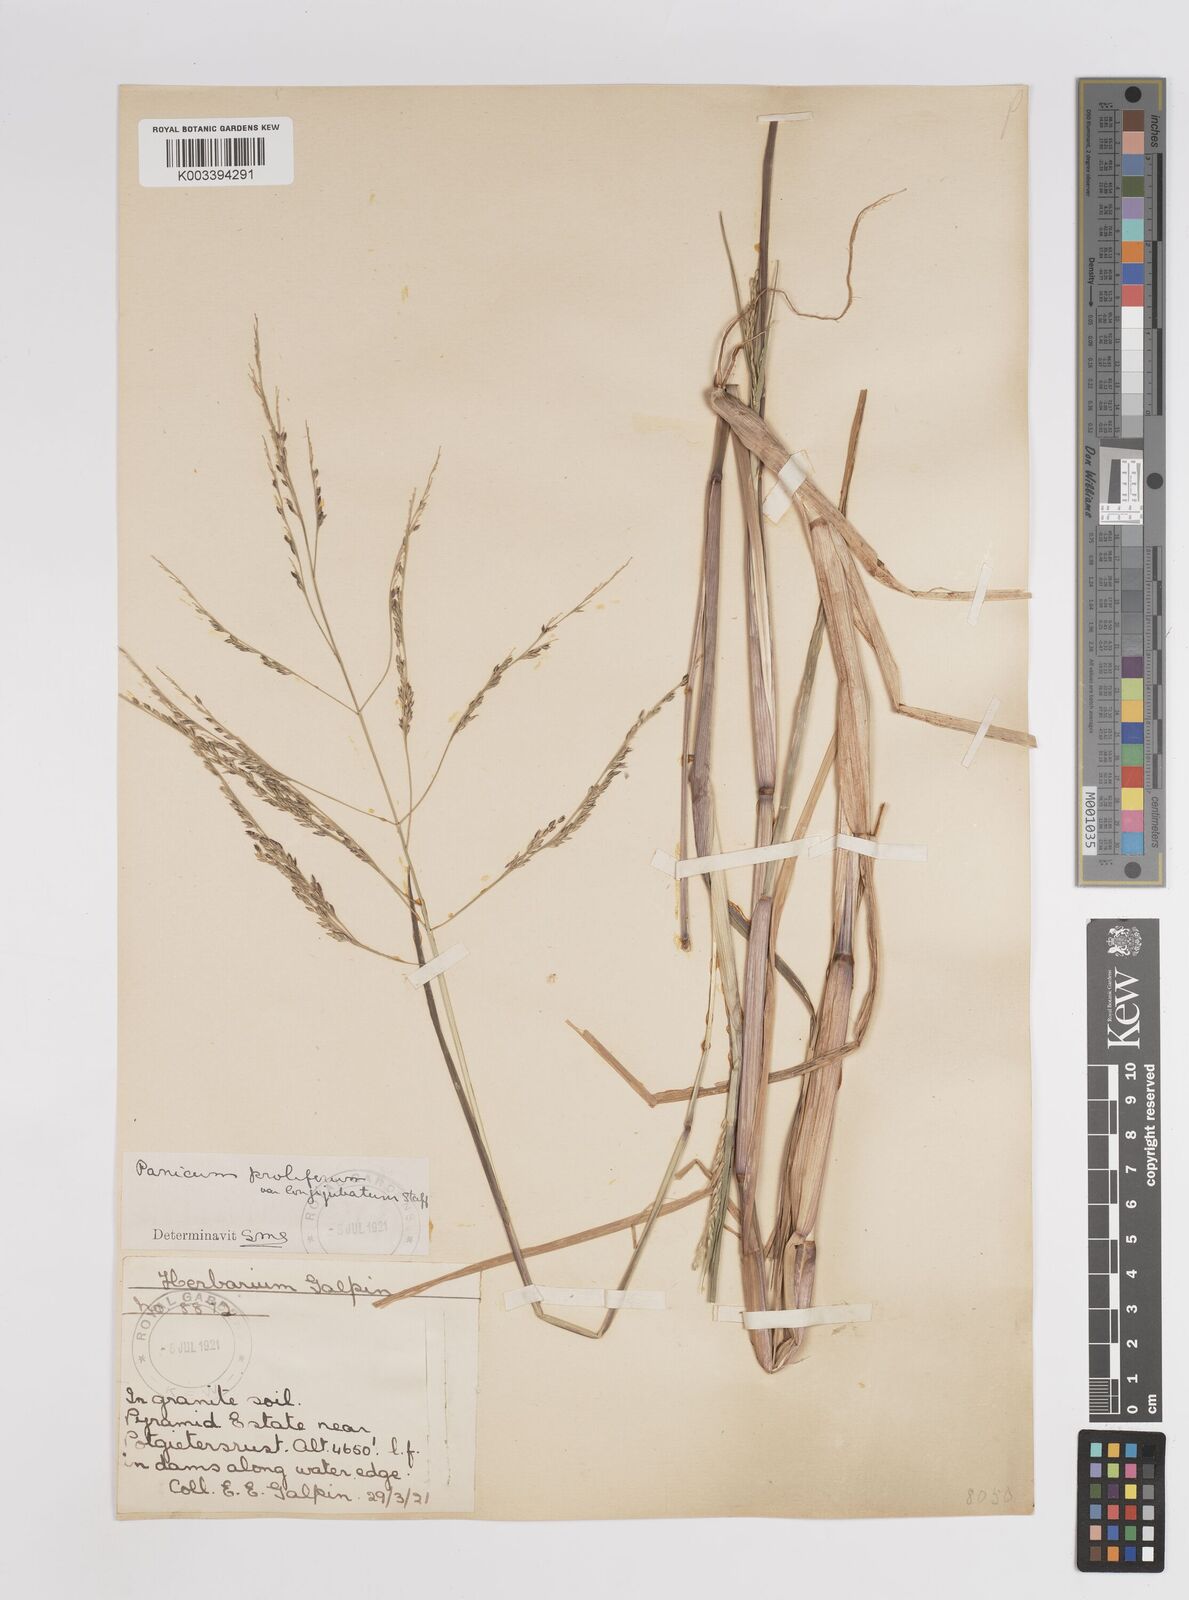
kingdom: Plantae
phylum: Tracheophyta
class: Liliopsida
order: Poales
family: Poaceae
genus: Panicum
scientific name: Panicum subalbidum
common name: Elbow buffalo grass
